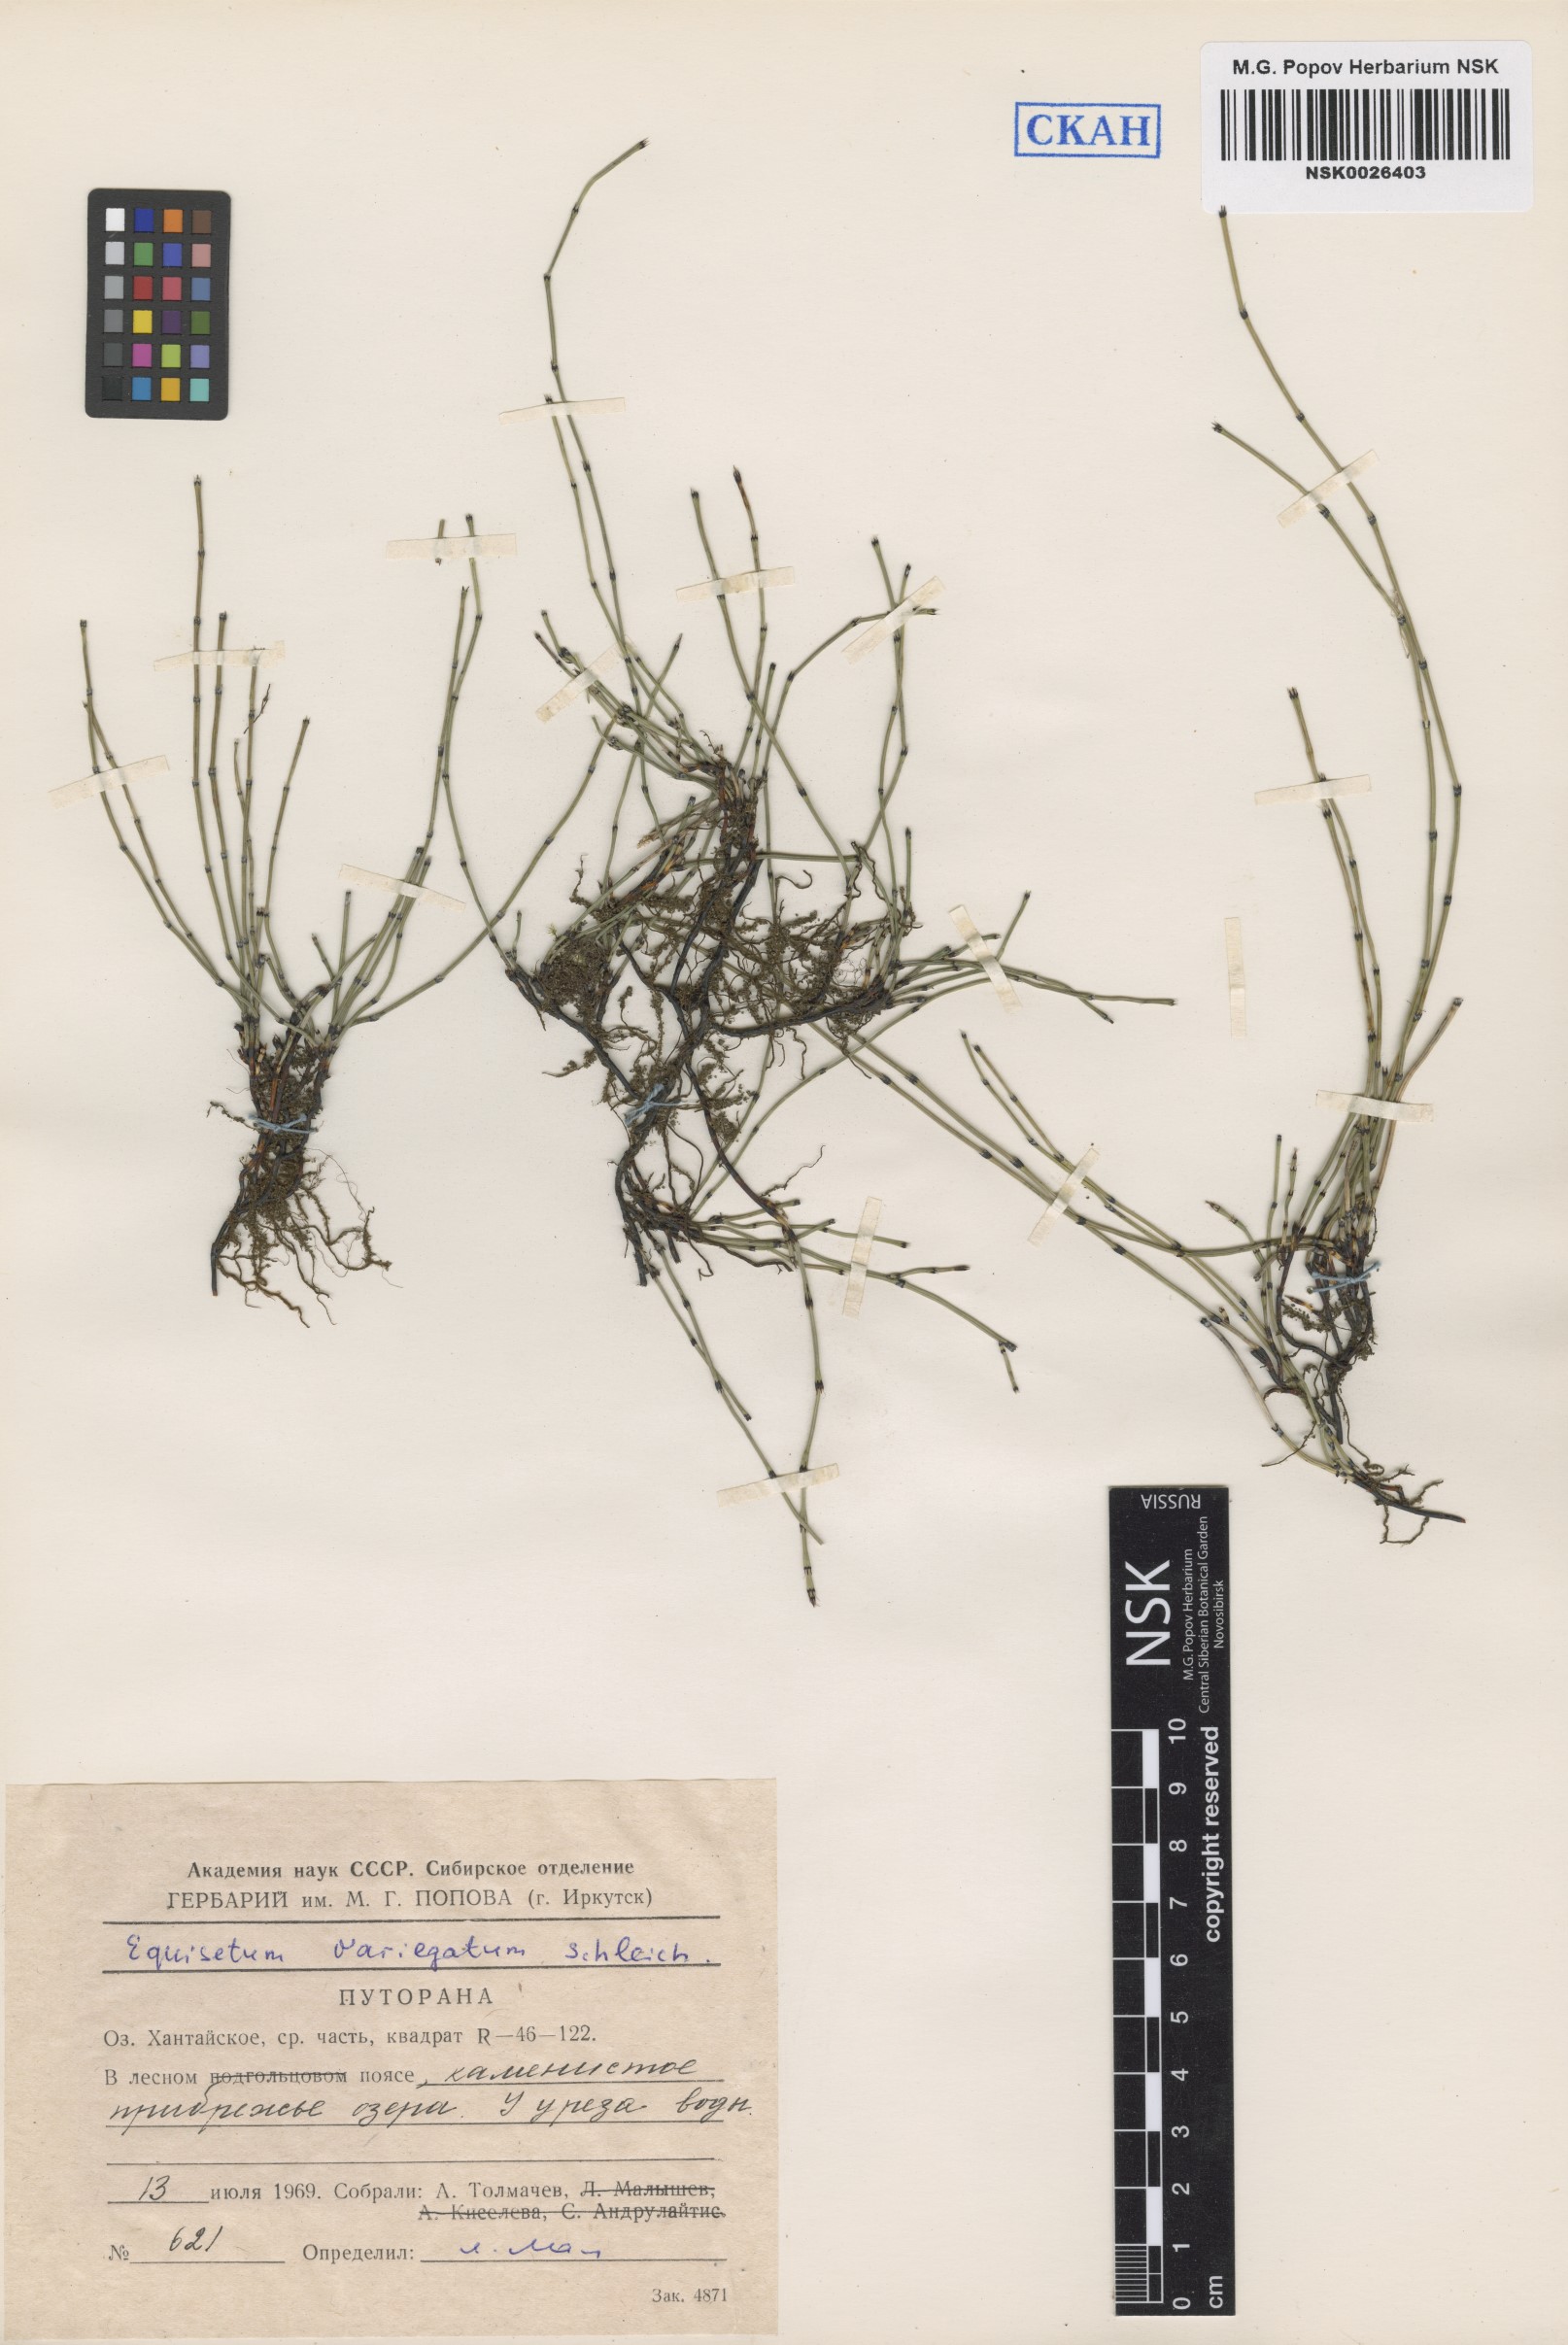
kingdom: Plantae
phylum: Tracheophyta
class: Polypodiopsida
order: Equisetales
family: Equisetaceae
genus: Equisetum
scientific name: Equisetum variegatum
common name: Variegated horsetail
